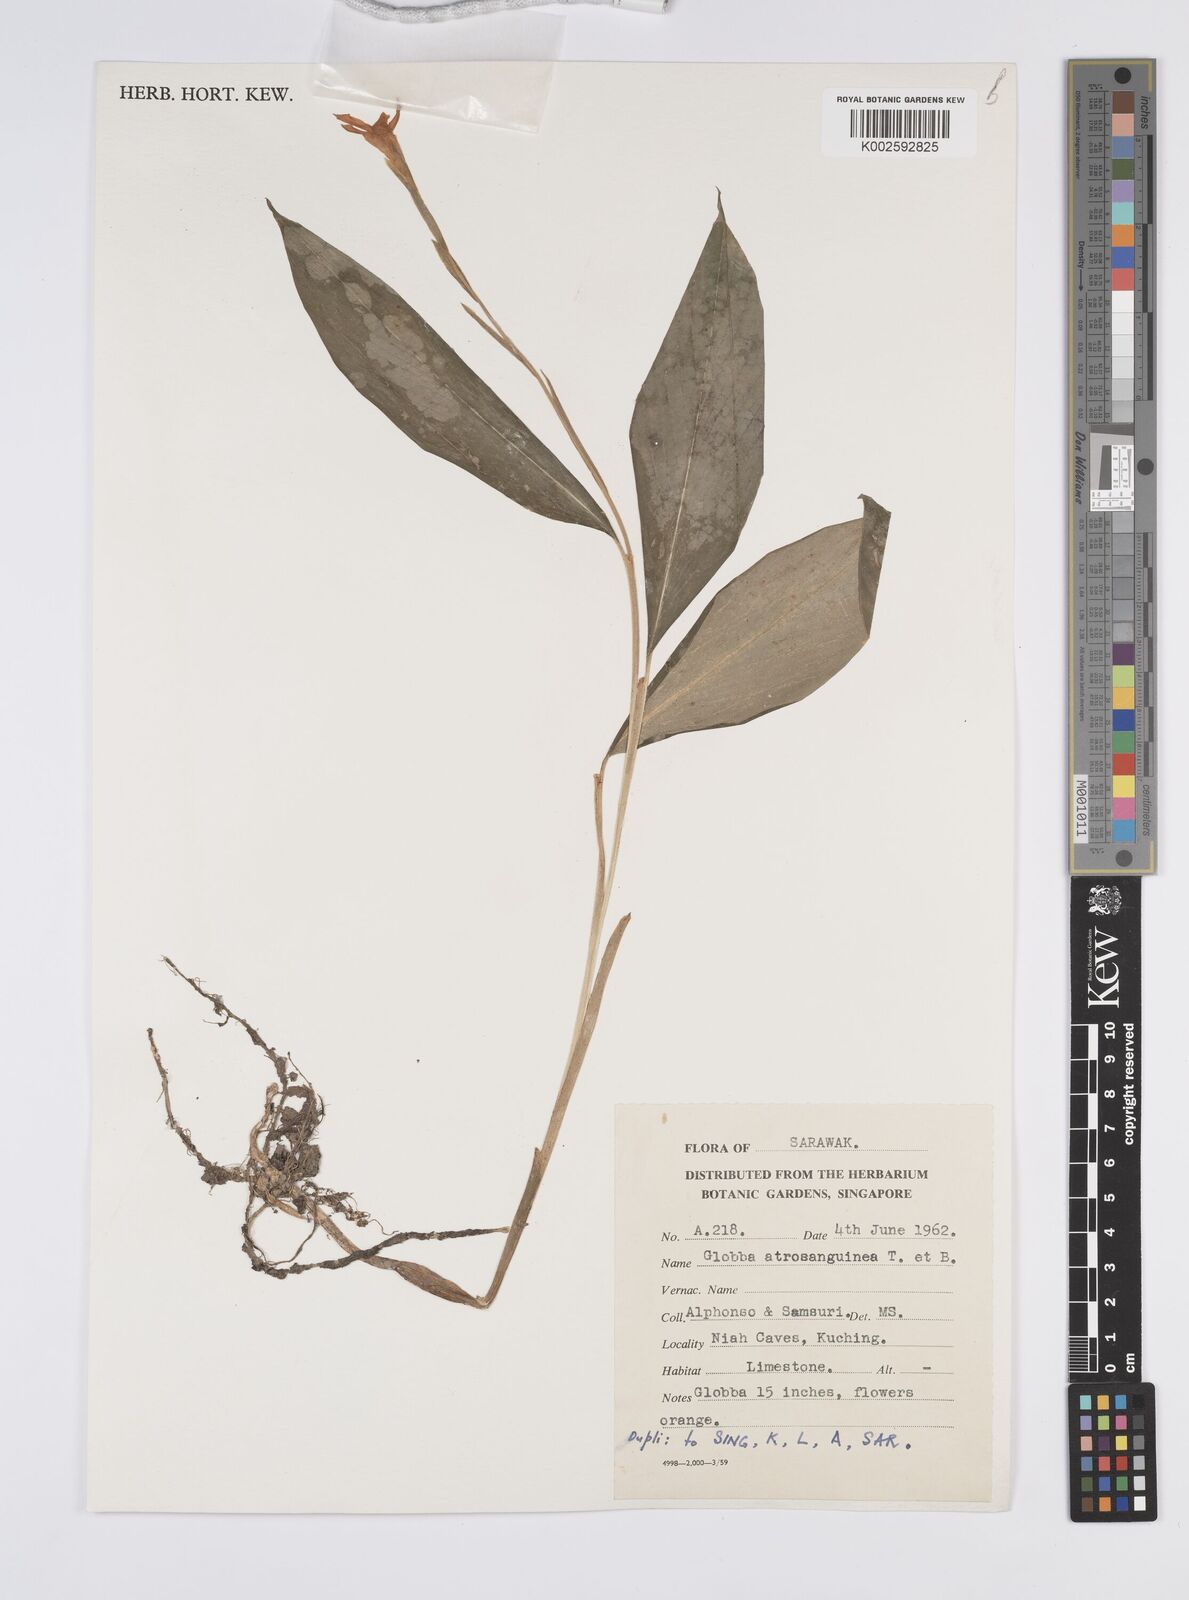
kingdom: Plantae
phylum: Tracheophyta
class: Liliopsida
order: Zingiberales
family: Zingiberaceae
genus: Globba
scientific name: Globba atrosanguinea
